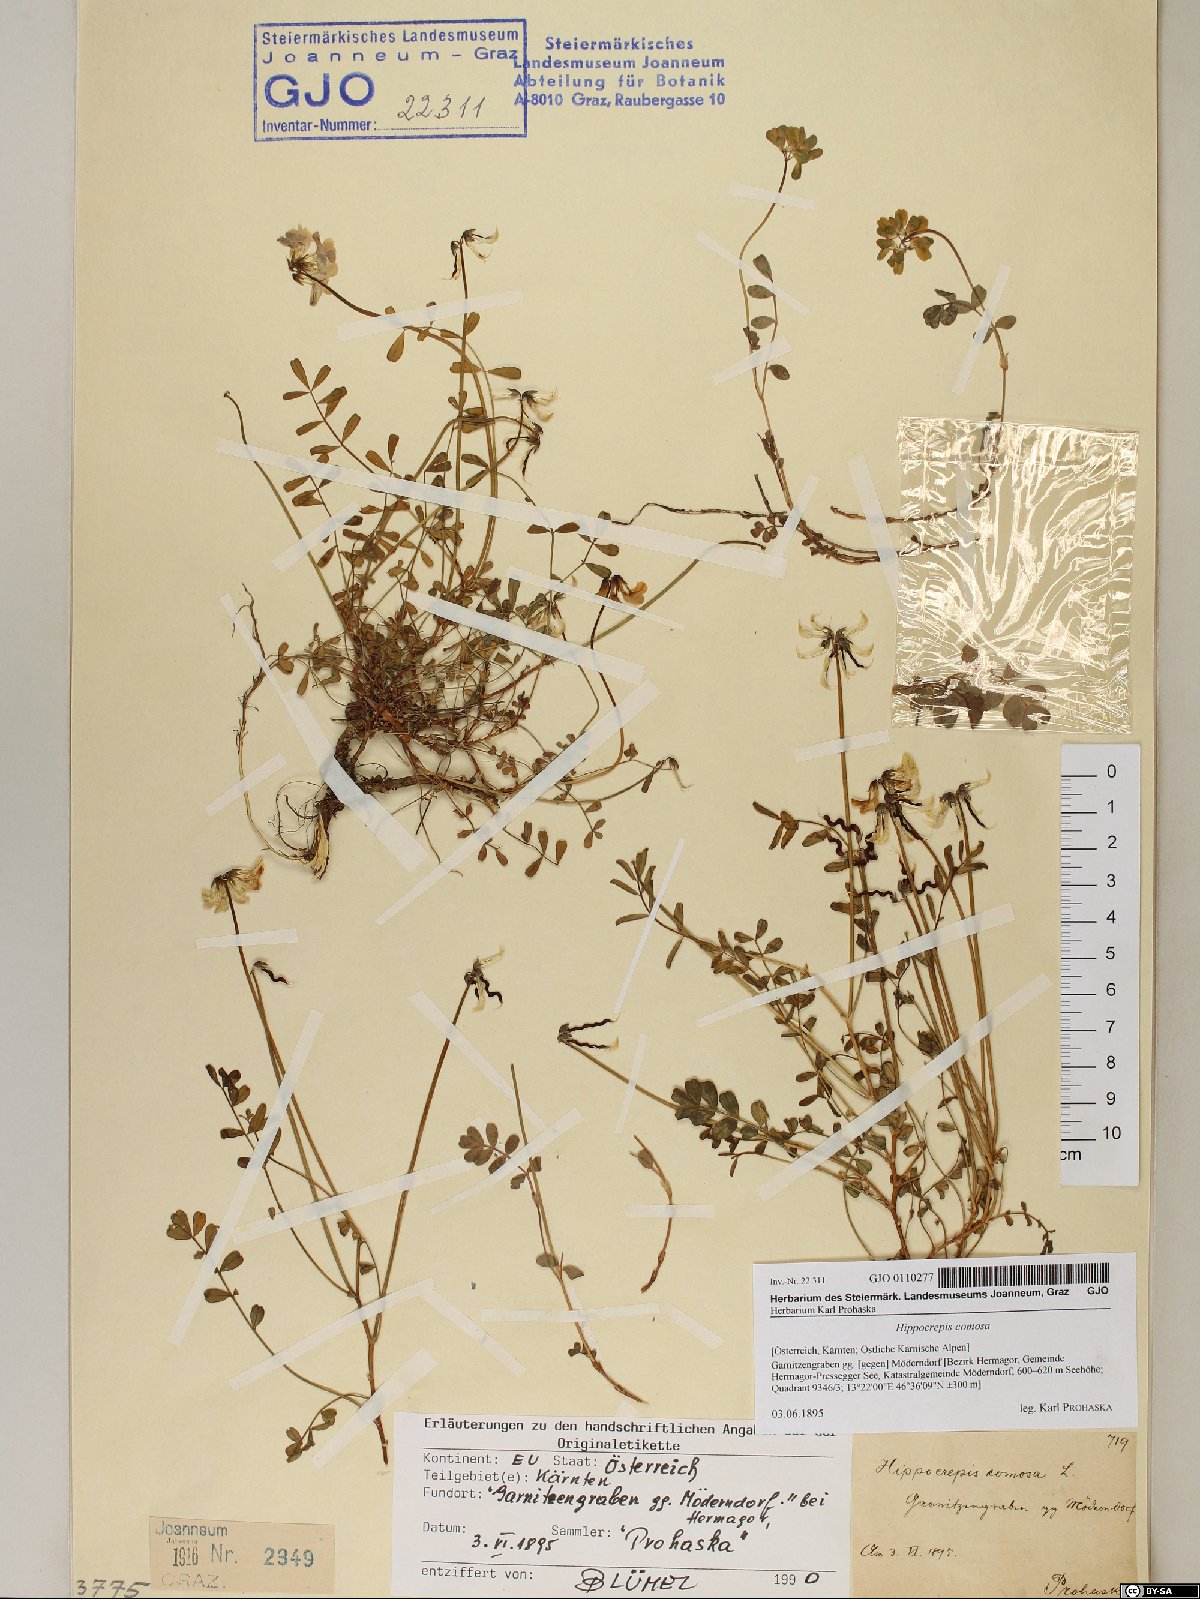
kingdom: Plantae
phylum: Tracheophyta
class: Magnoliopsida
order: Fabales
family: Fabaceae
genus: Hippocrepis
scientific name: Hippocrepis comosa
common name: Horseshoe vetch
